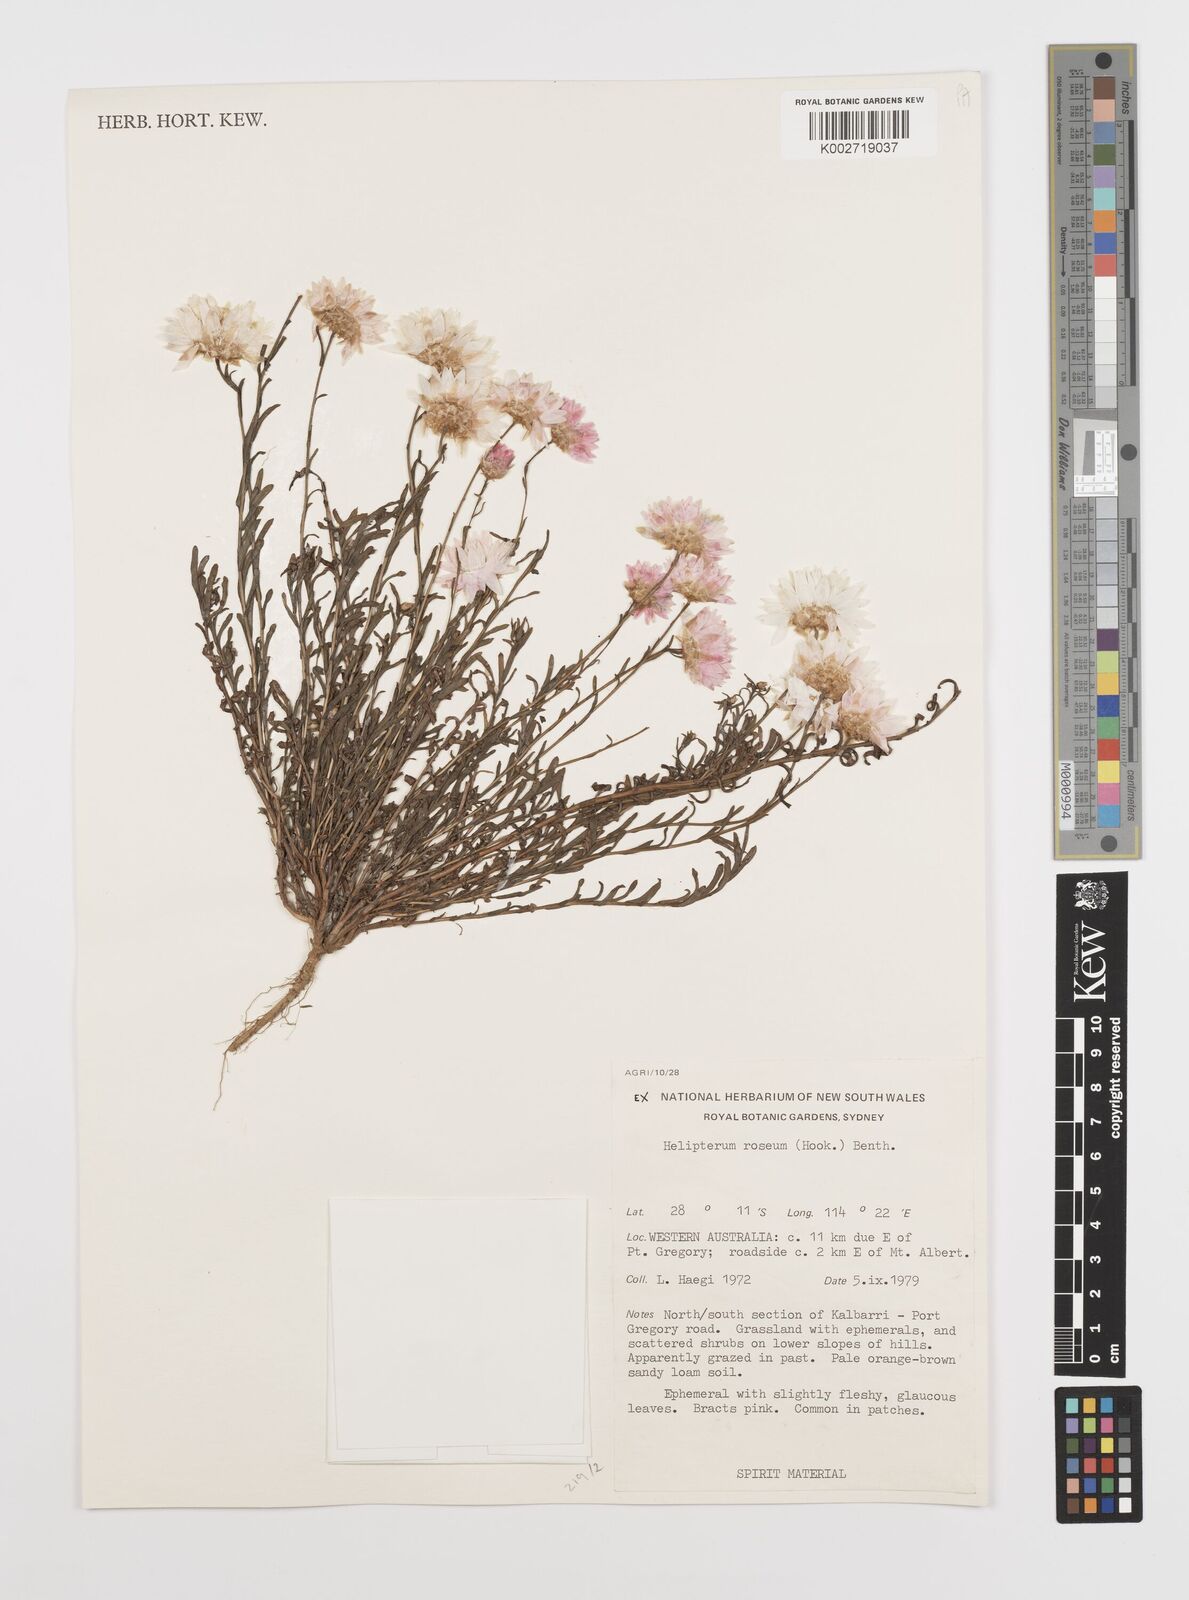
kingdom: Plantae
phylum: Tracheophyta
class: Magnoliopsida
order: Asterales
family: Asteraceae
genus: Rhodanthe
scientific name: Rhodanthe chlorocephala
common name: Rosy sunray
